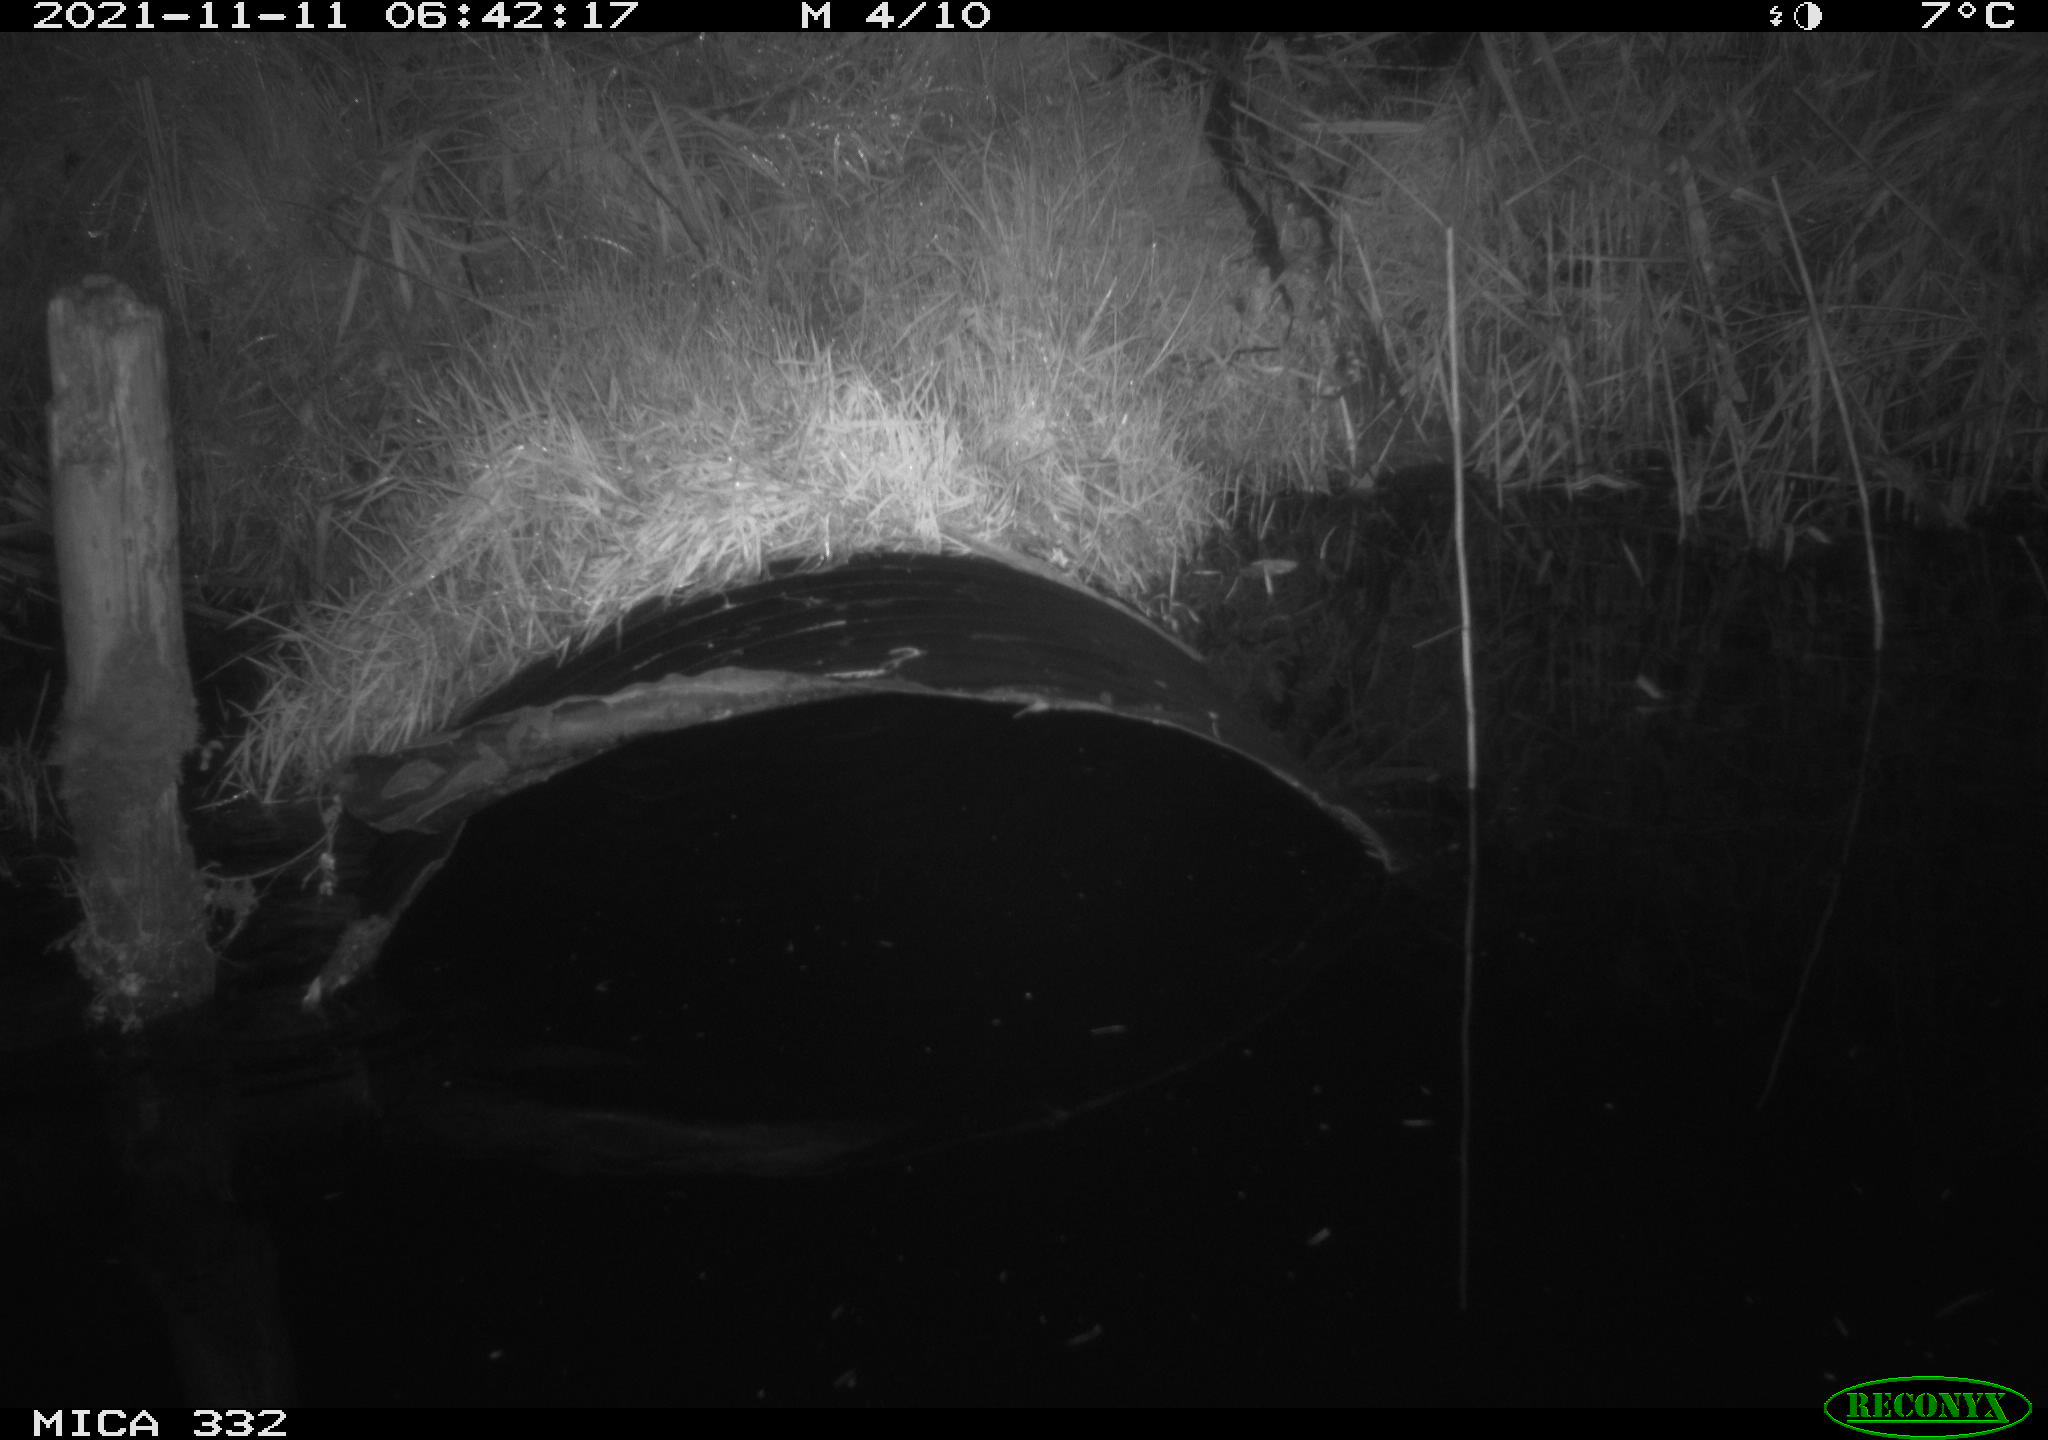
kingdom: Animalia
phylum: Chordata
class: Mammalia
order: Carnivora
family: Mustelidae
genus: Lutra
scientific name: Lutra lutra
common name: European otter
